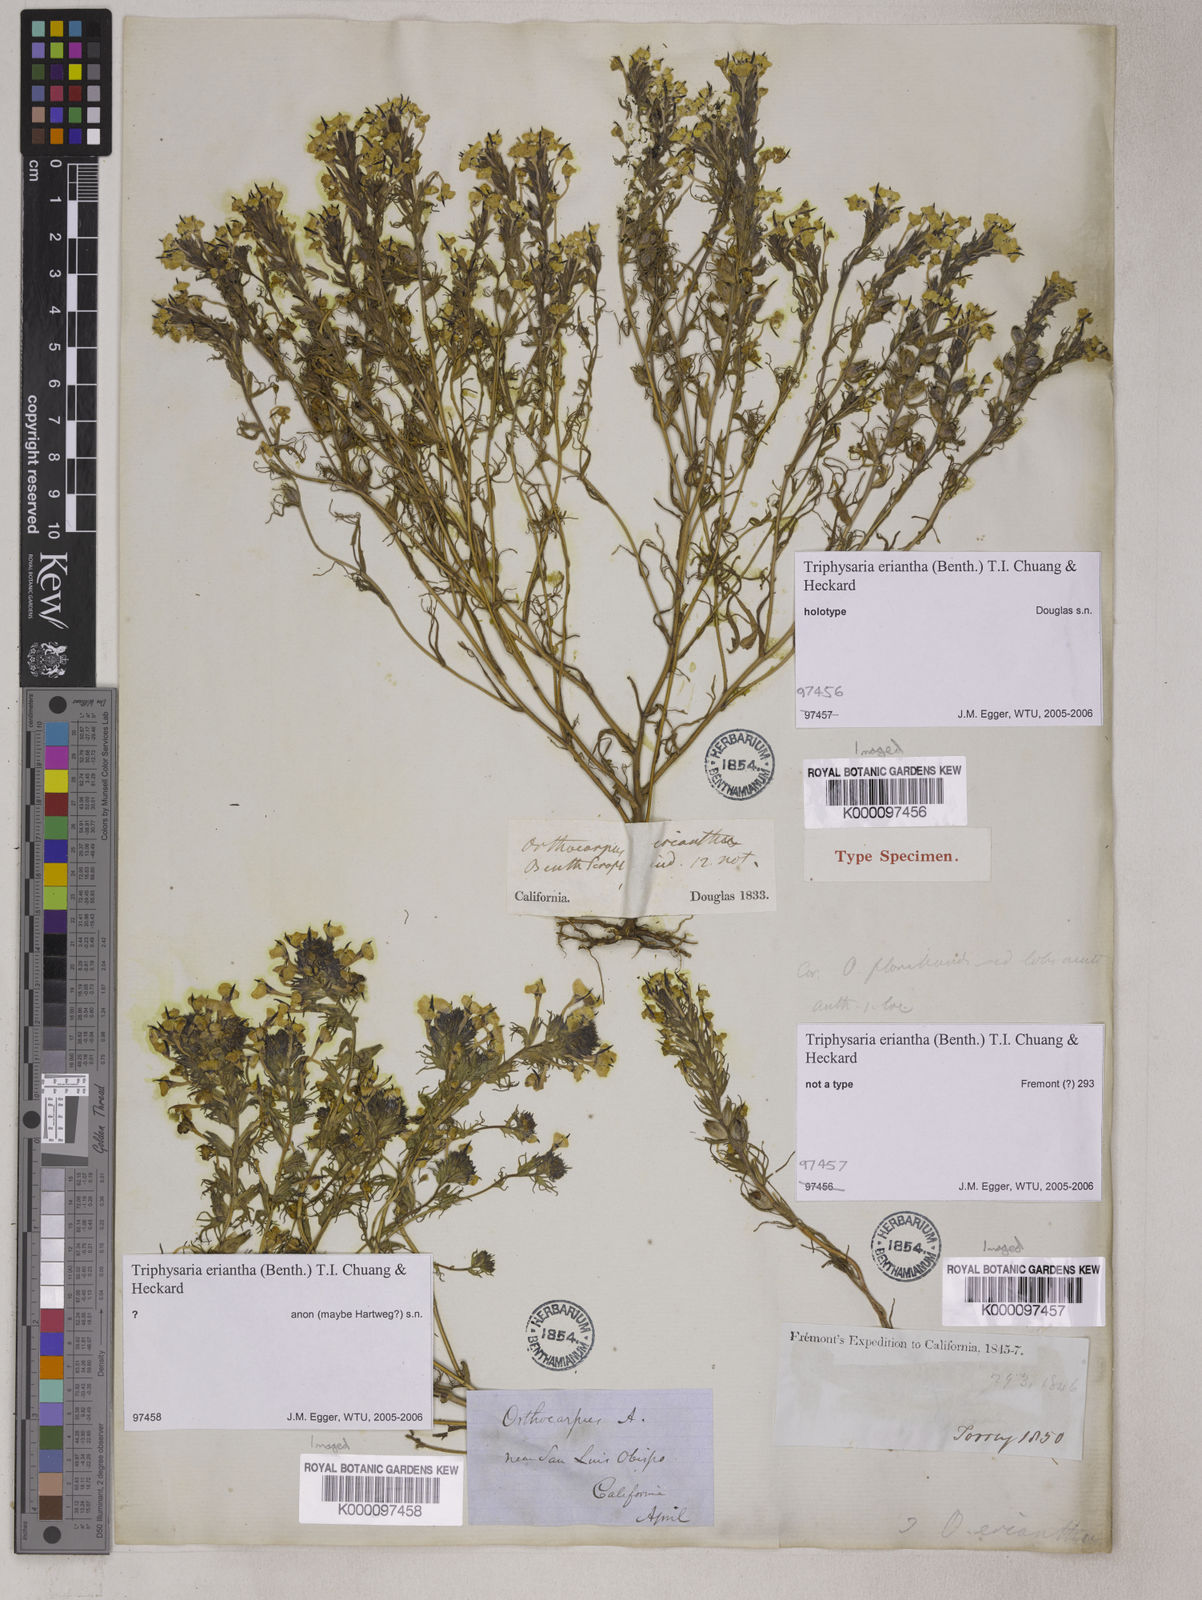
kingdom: Plantae
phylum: Tracheophyta
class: Magnoliopsida
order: Lamiales
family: Orobanchaceae
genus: Triphysaria
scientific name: Triphysaria eriantha
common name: Johnny-tuck
